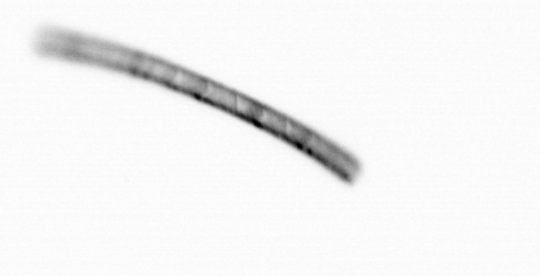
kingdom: Chromista
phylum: Ochrophyta
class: Bacillariophyceae
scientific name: Bacillariophyceae
